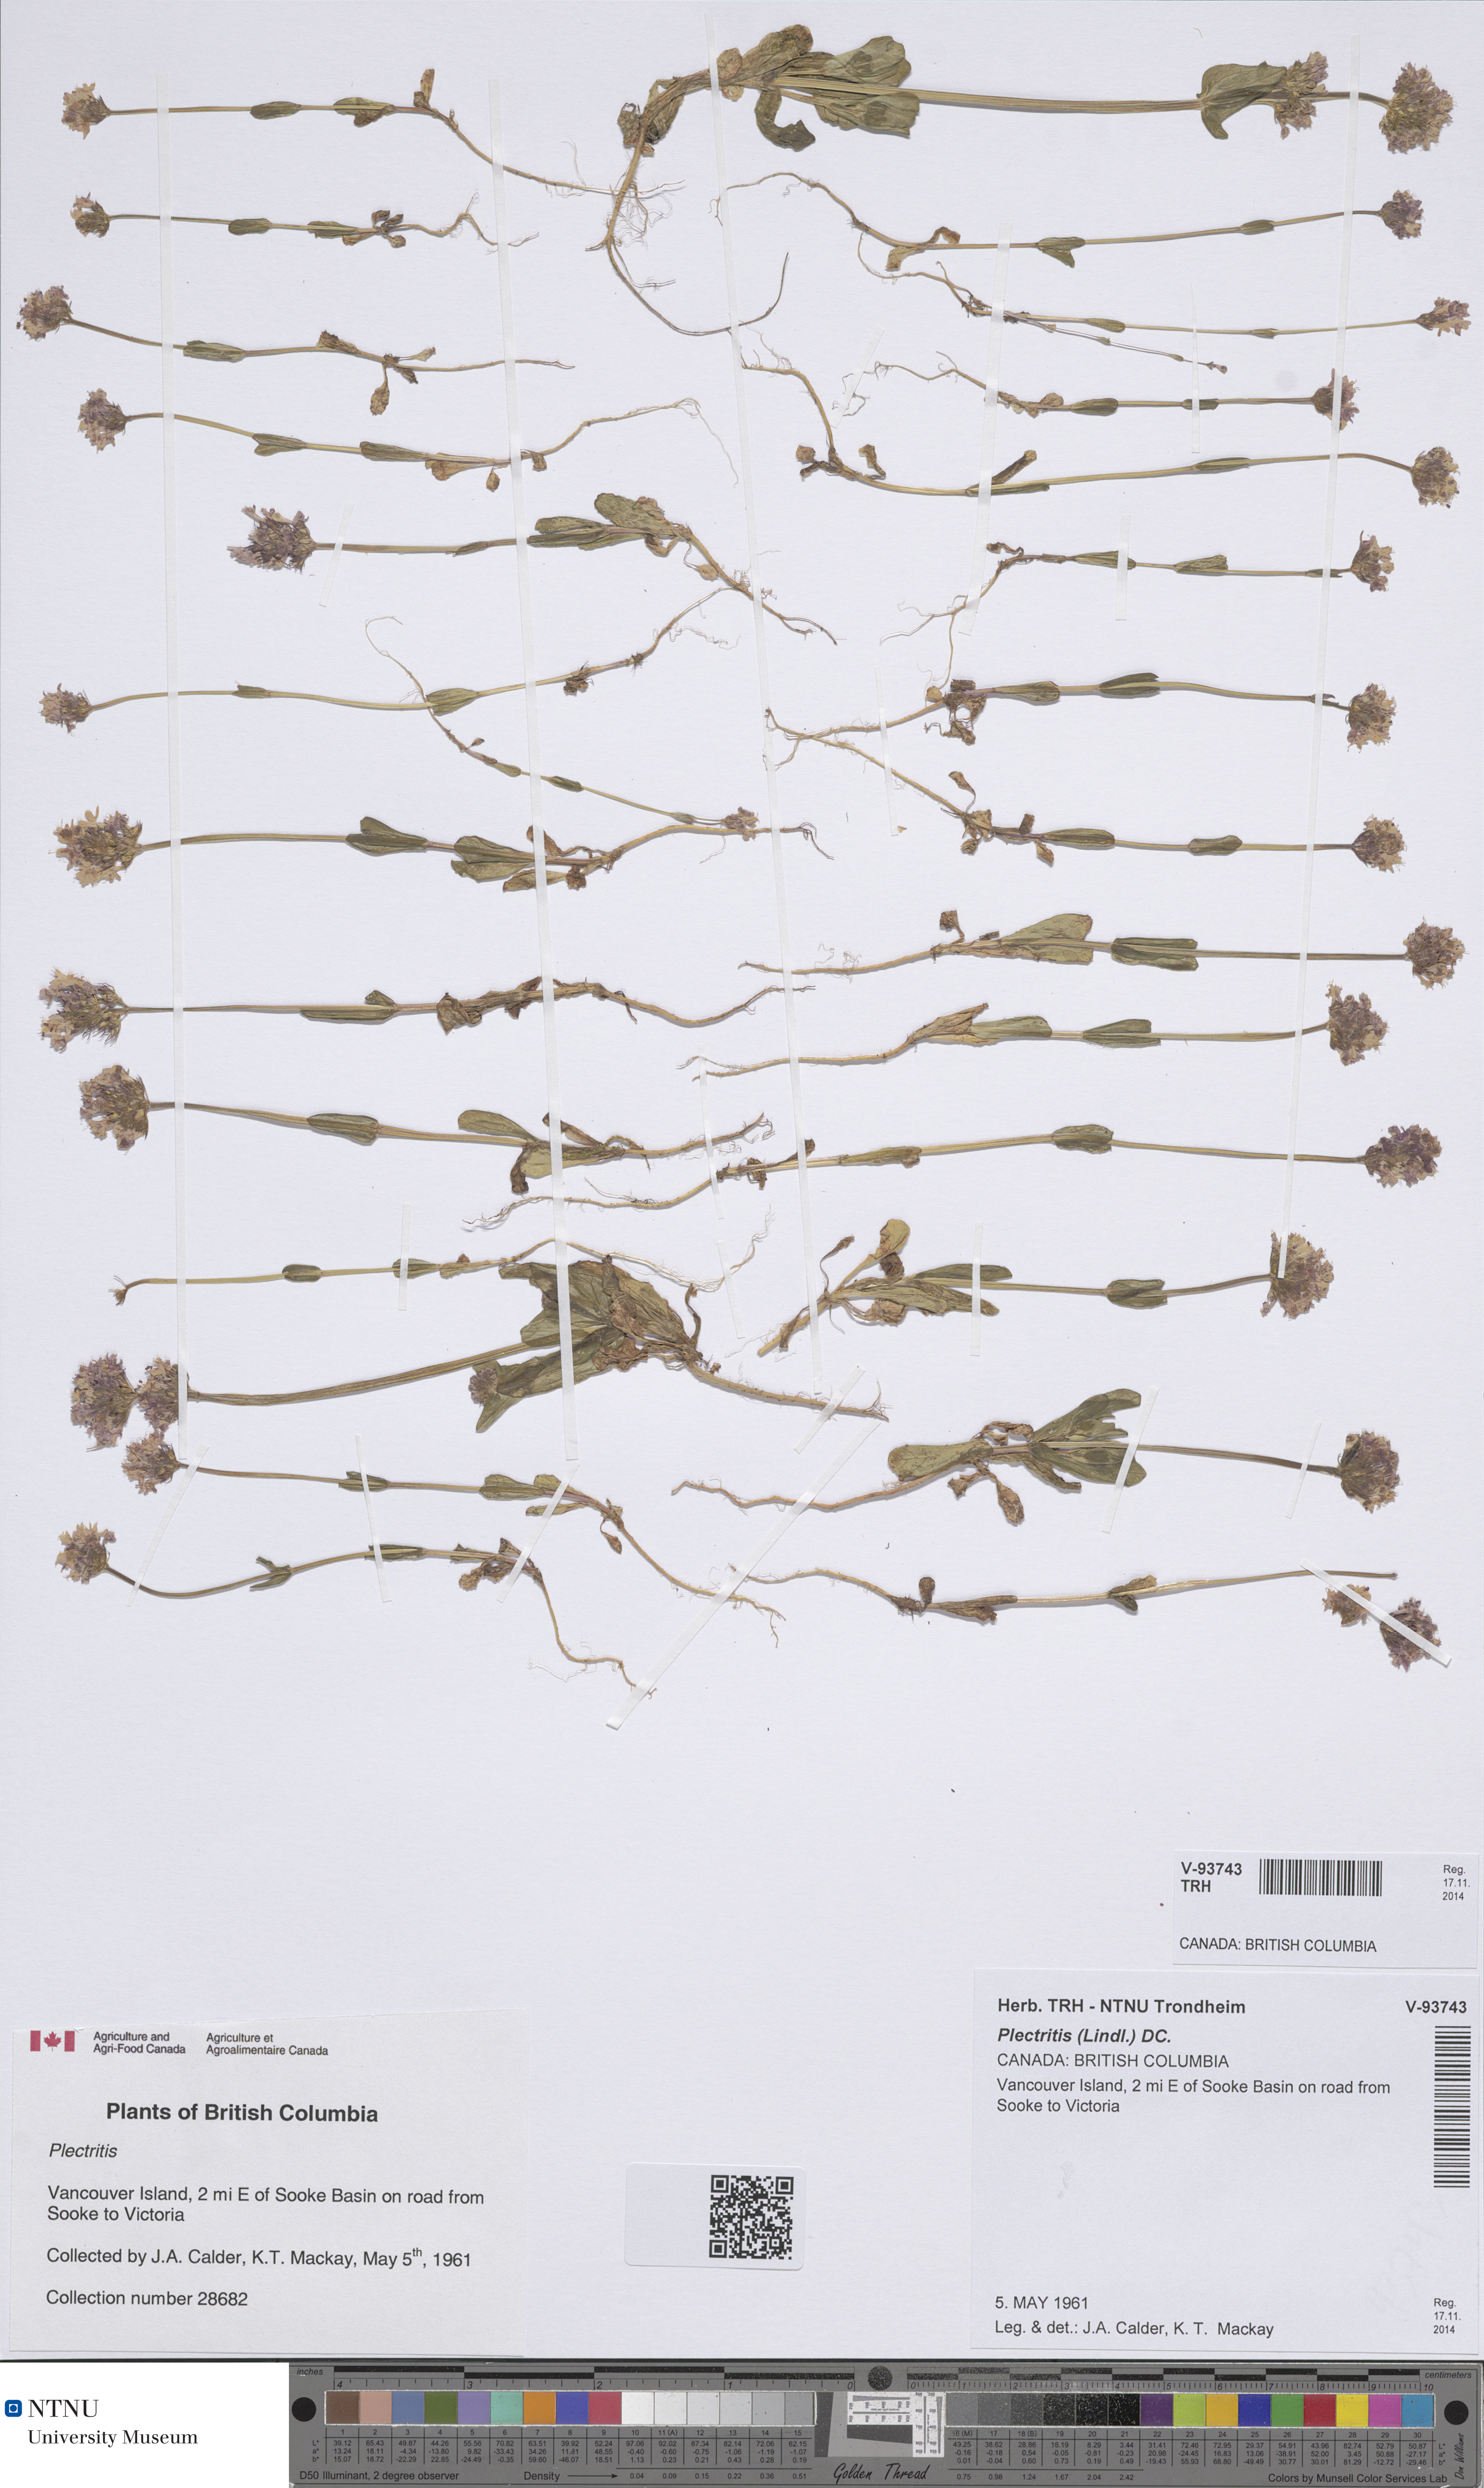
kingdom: Plantae
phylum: Tracheophyta
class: Magnoliopsida
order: Dipsacales
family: Caprifoliaceae
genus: Plectritis
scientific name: Plectritis
